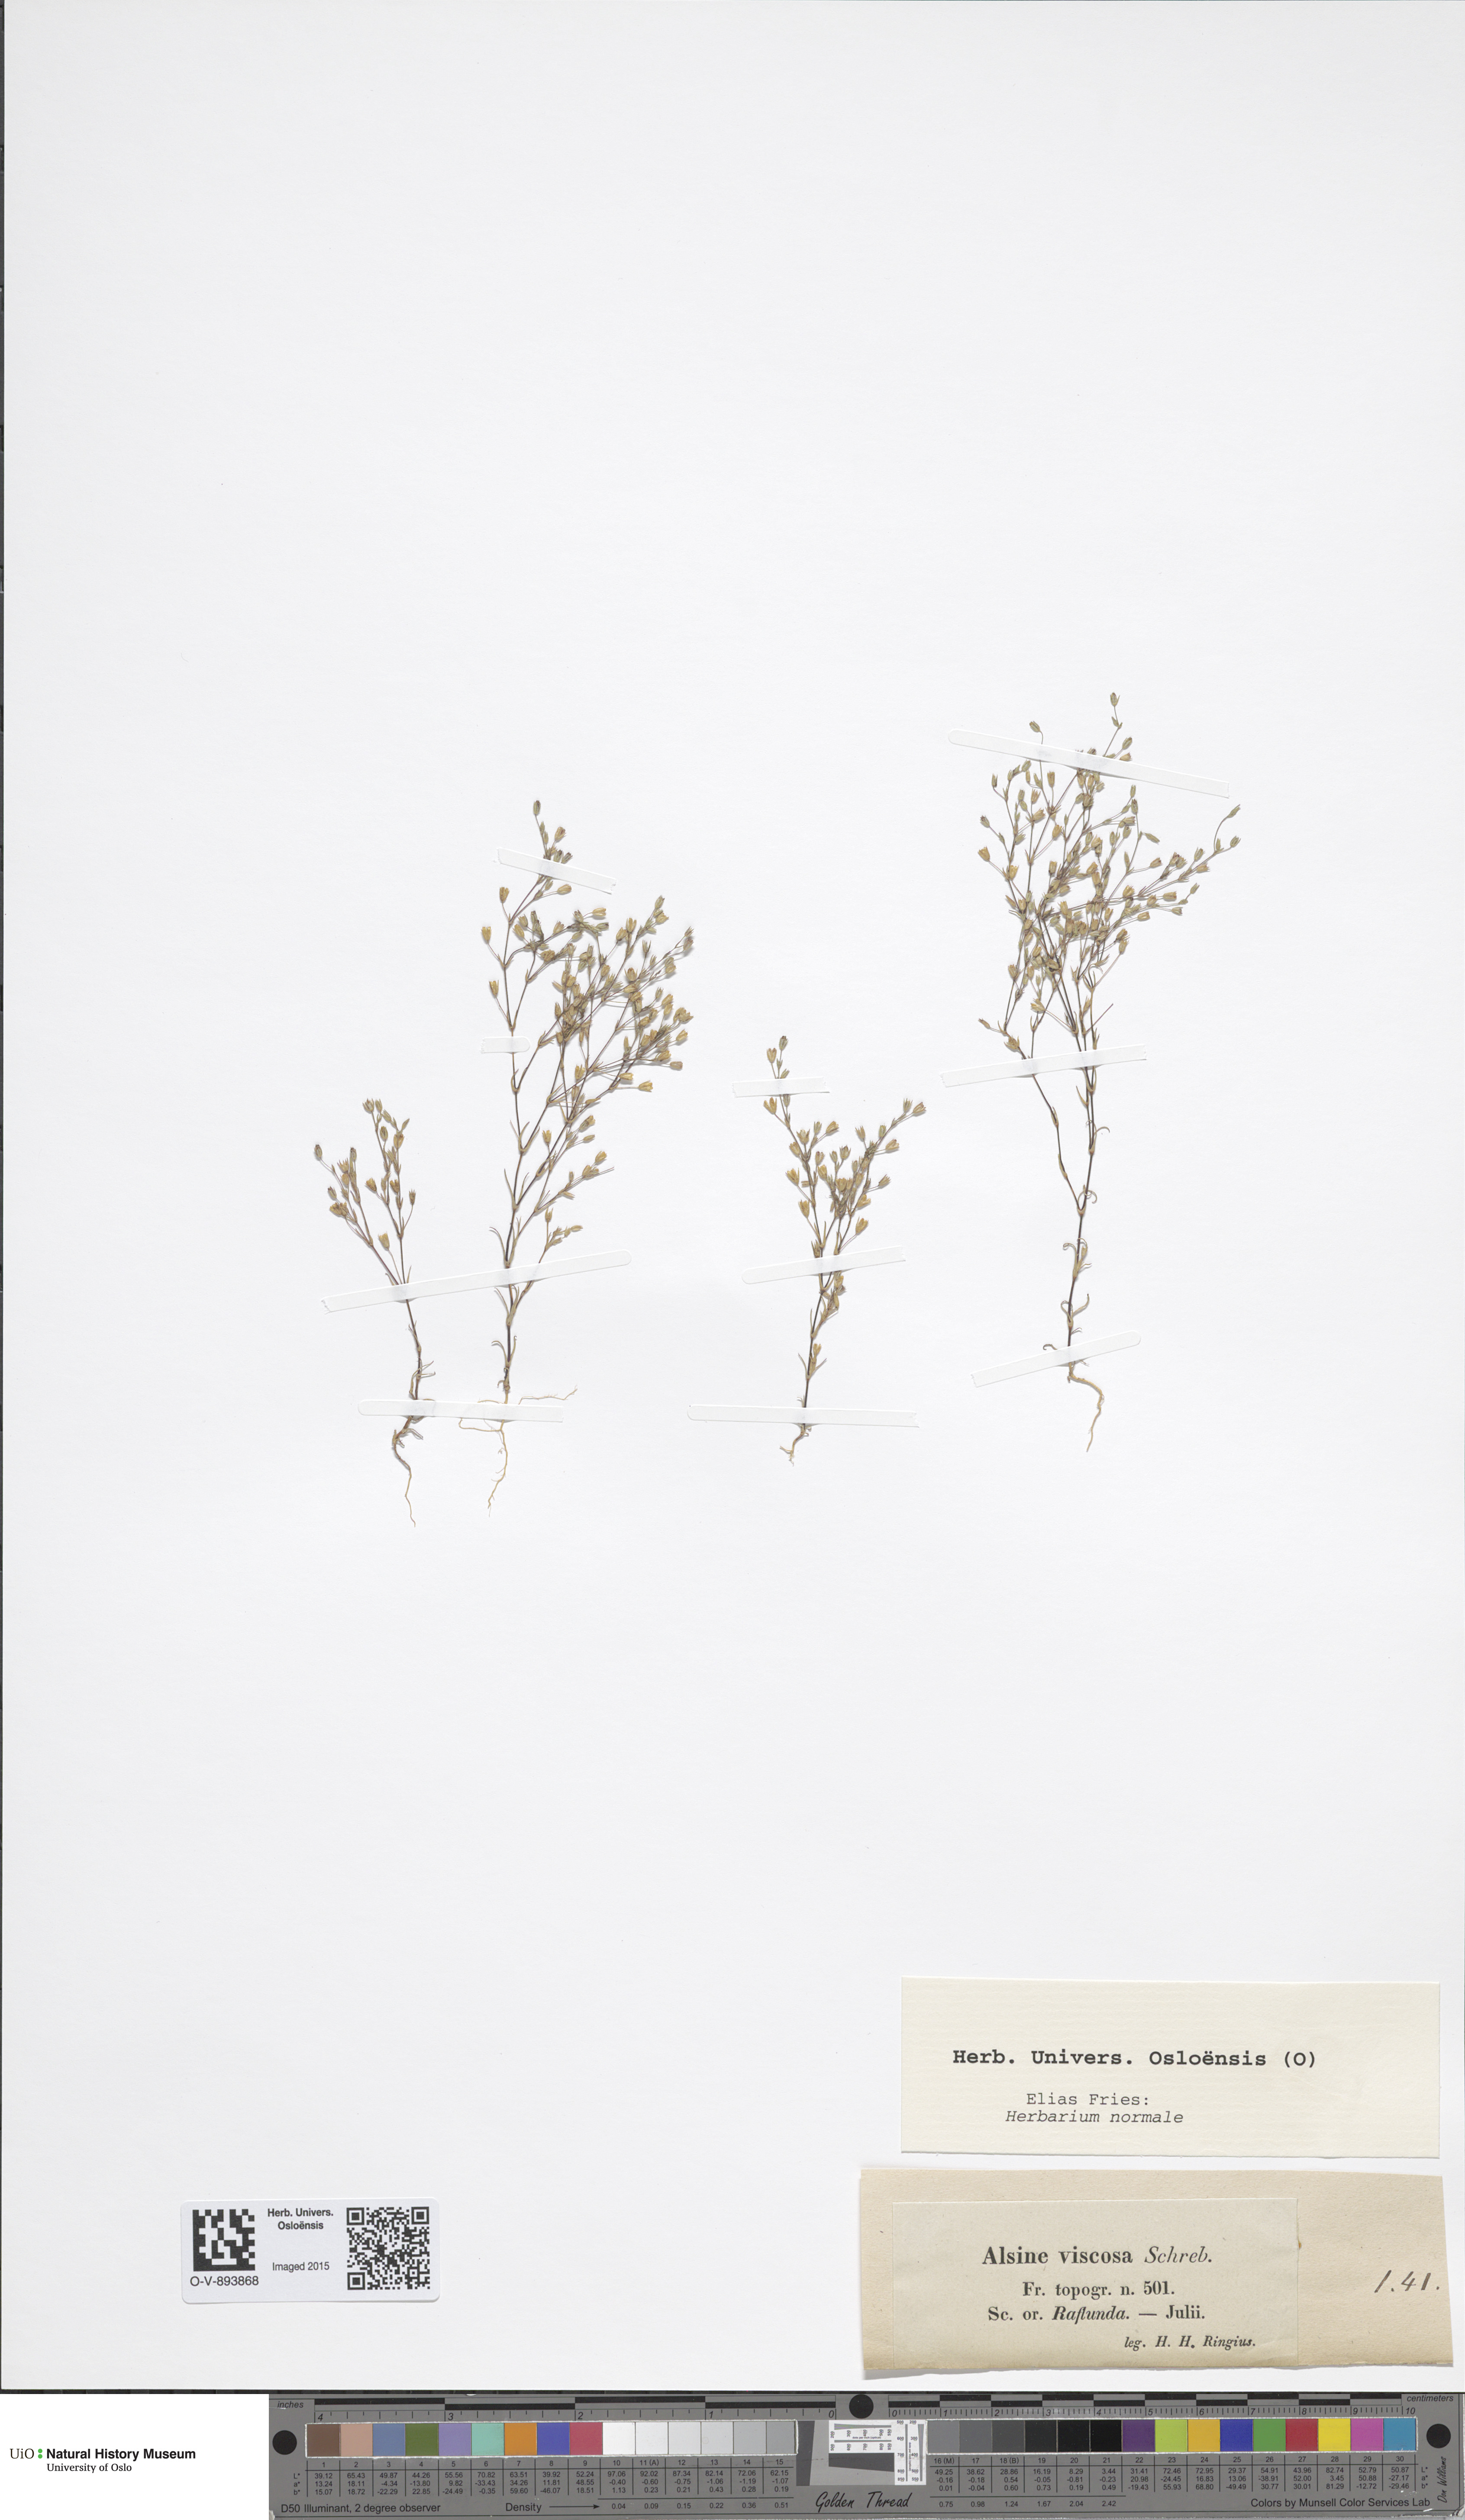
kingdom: Plantae
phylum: Tracheophyta
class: Magnoliopsida
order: Caryophyllales
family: Caryophyllaceae
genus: Sabulina
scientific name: Sabulina viscosa
